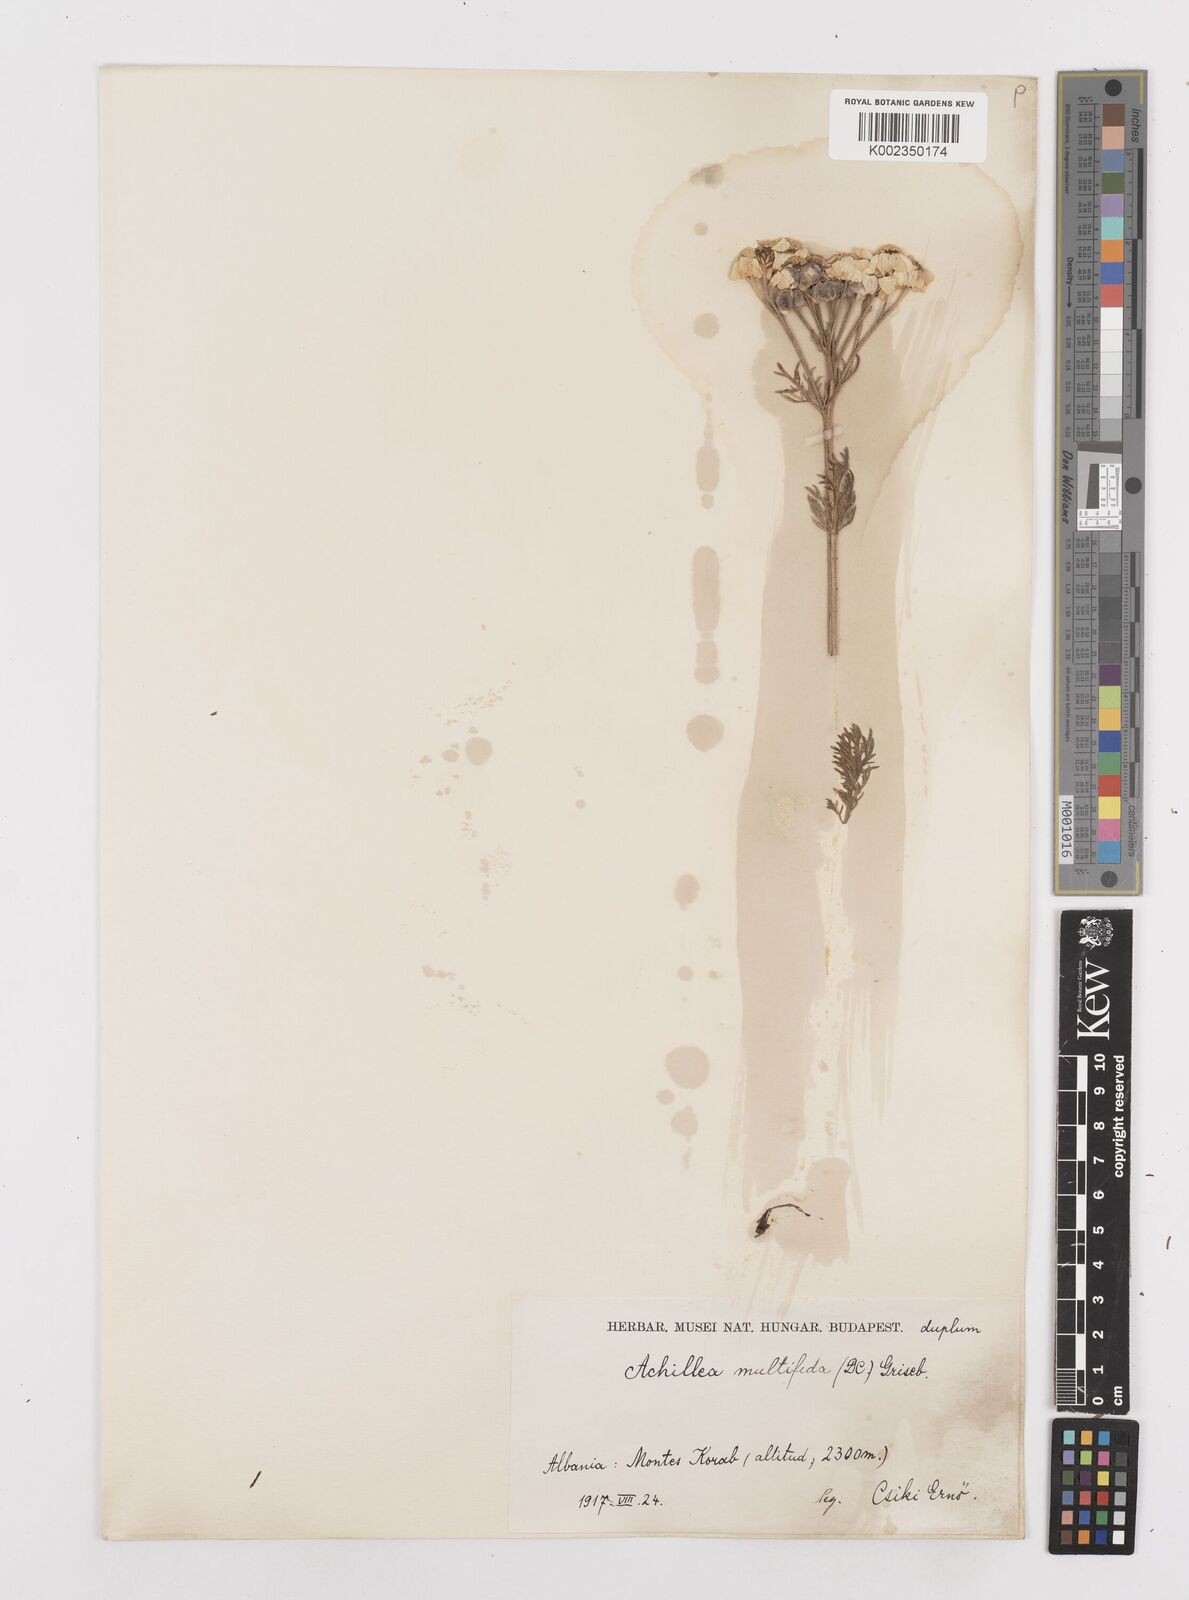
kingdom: Plantae
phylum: Tracheophyta
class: Magnoliopsida
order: Asterales
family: Asteraceae
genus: Achillea
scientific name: Achillea multifida
